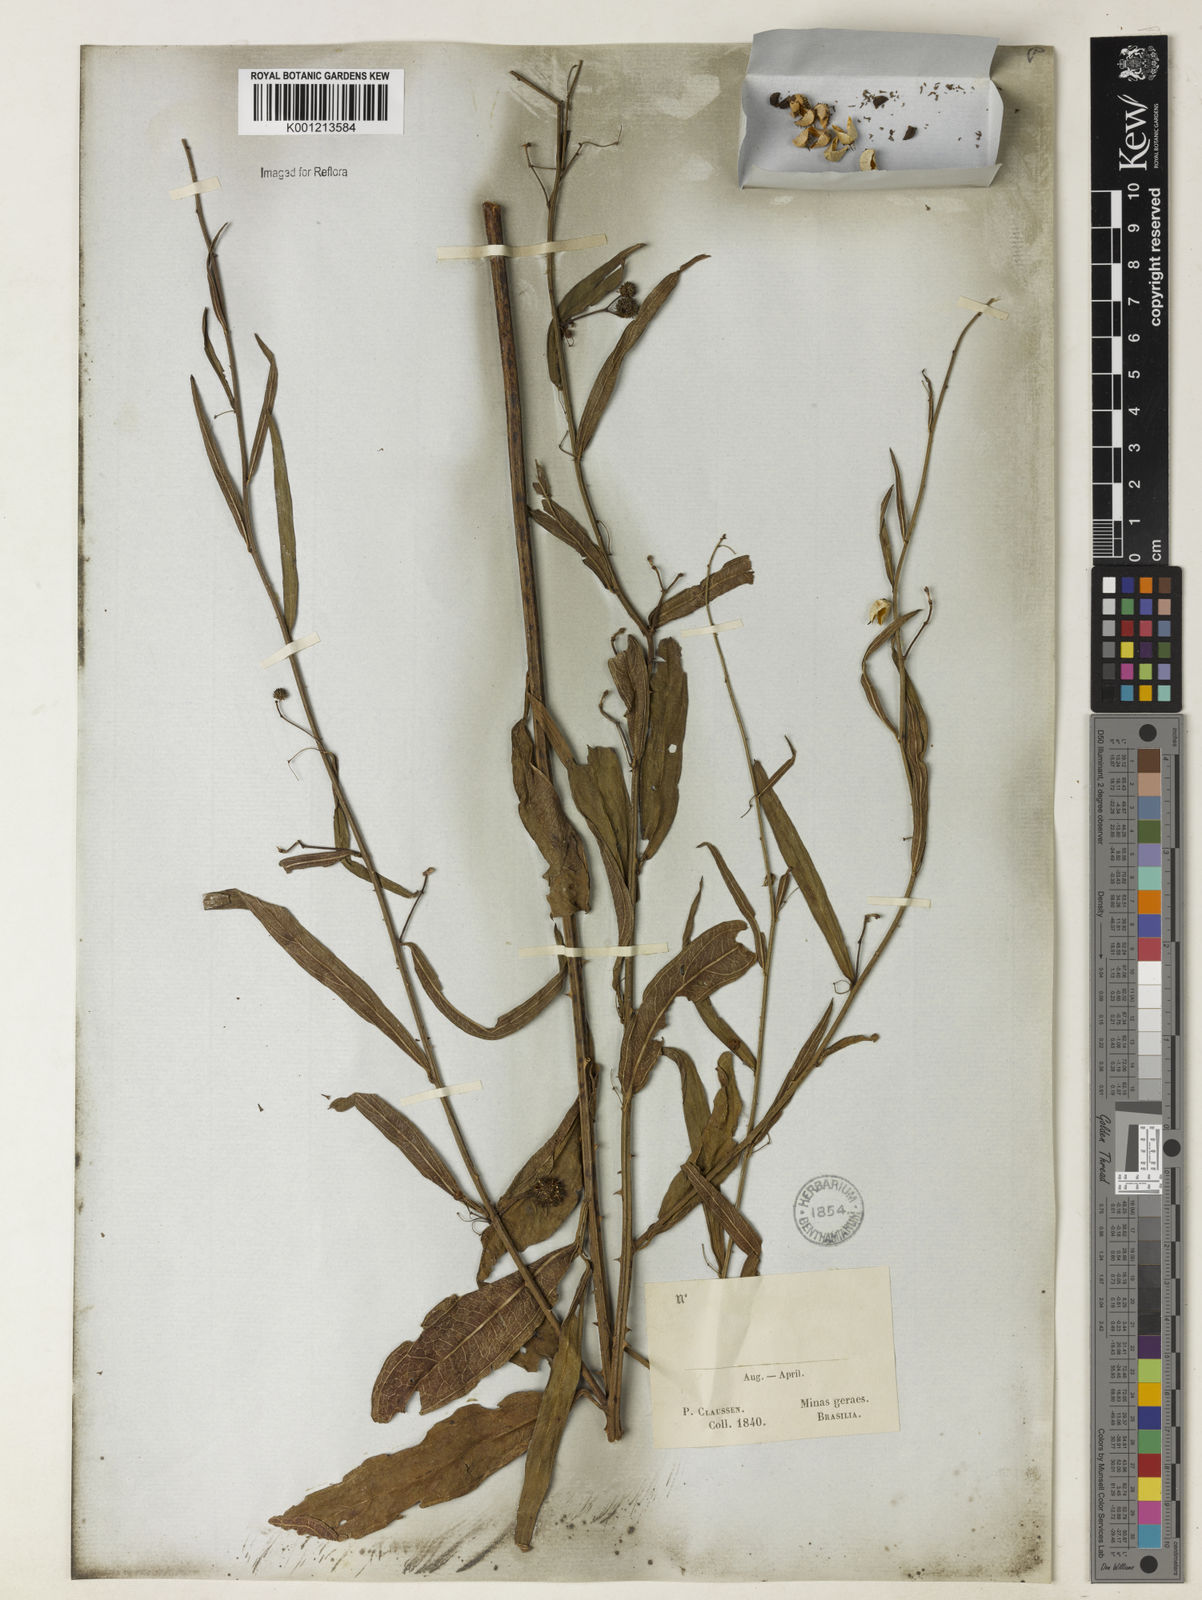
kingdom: Plantae
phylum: Tracheophyta
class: Magnoliopsida
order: Malvales
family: Malvaceae
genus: Byttneria
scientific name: Byttneria
